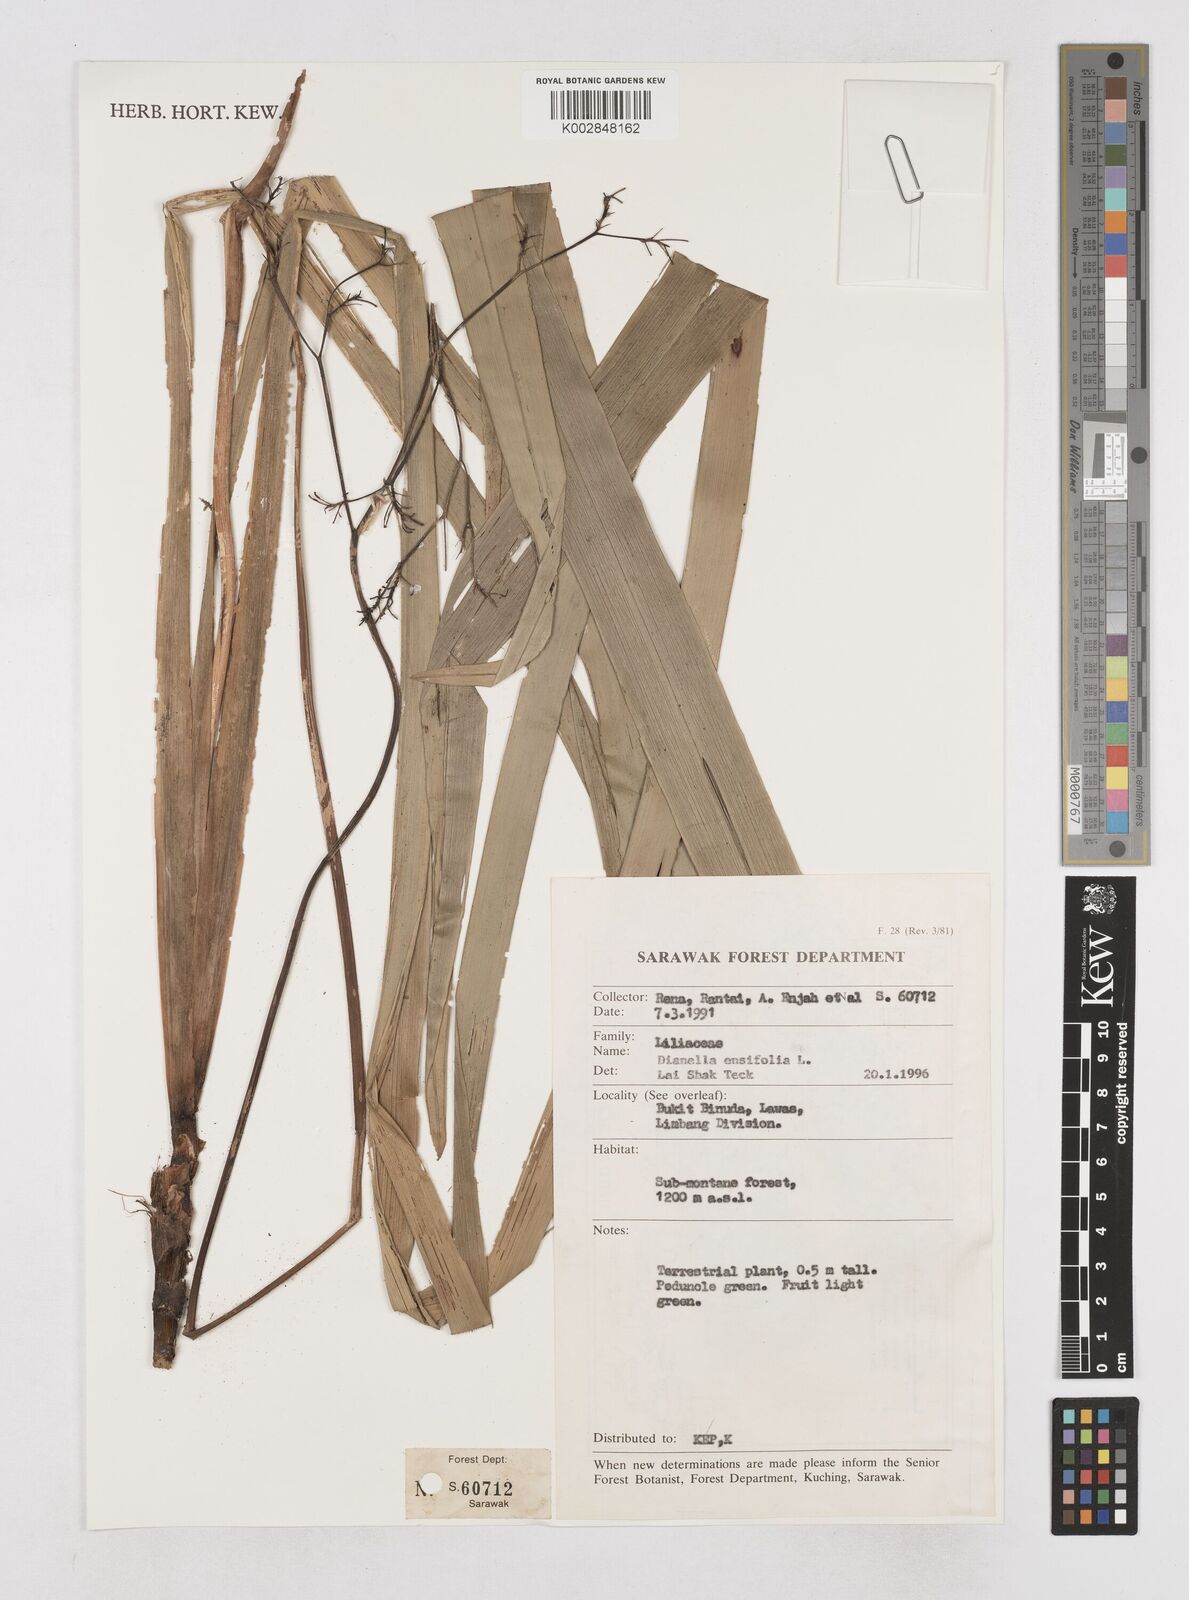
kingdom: Plantae
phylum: Tracheophyta
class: Liliopsida
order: Asparagales
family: Asphodelaceae
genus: Dianella
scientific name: Dianella ensifolia
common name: New zealand lilyplant
